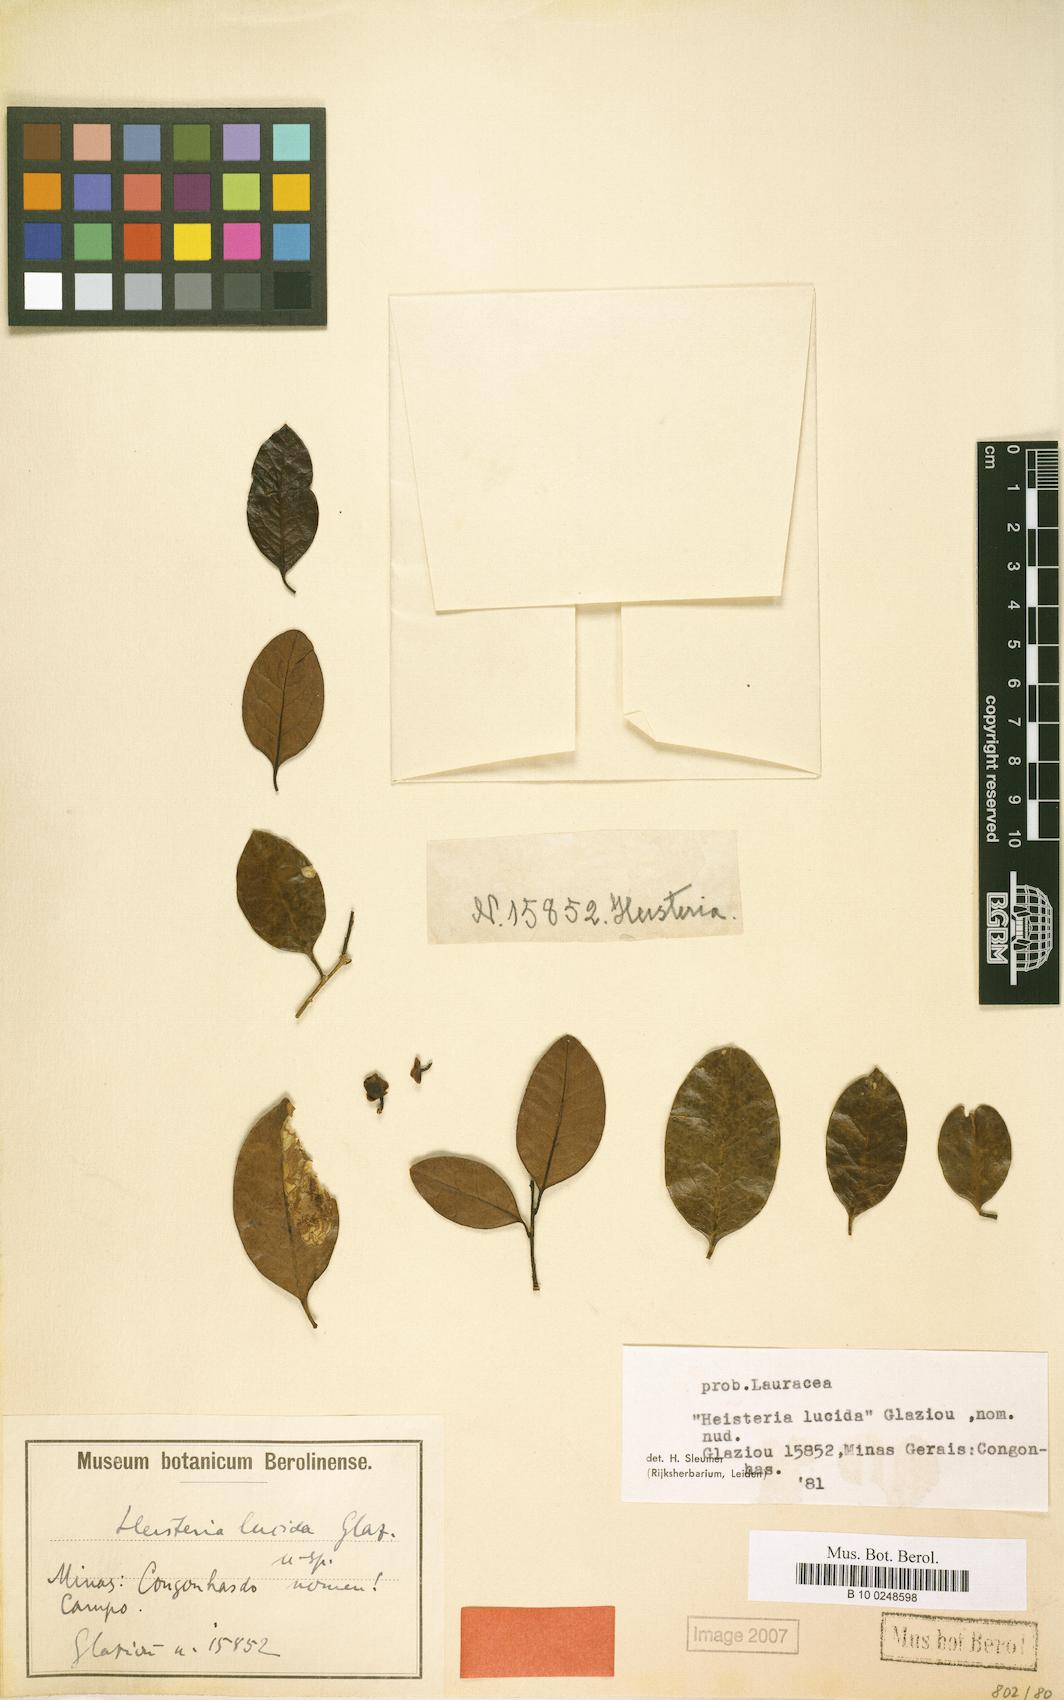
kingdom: Plantae
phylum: Tracheophyta
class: Magnoliopsida
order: Santalales
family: Erythropalaceae
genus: Heisteria
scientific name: Heisteria lucida
